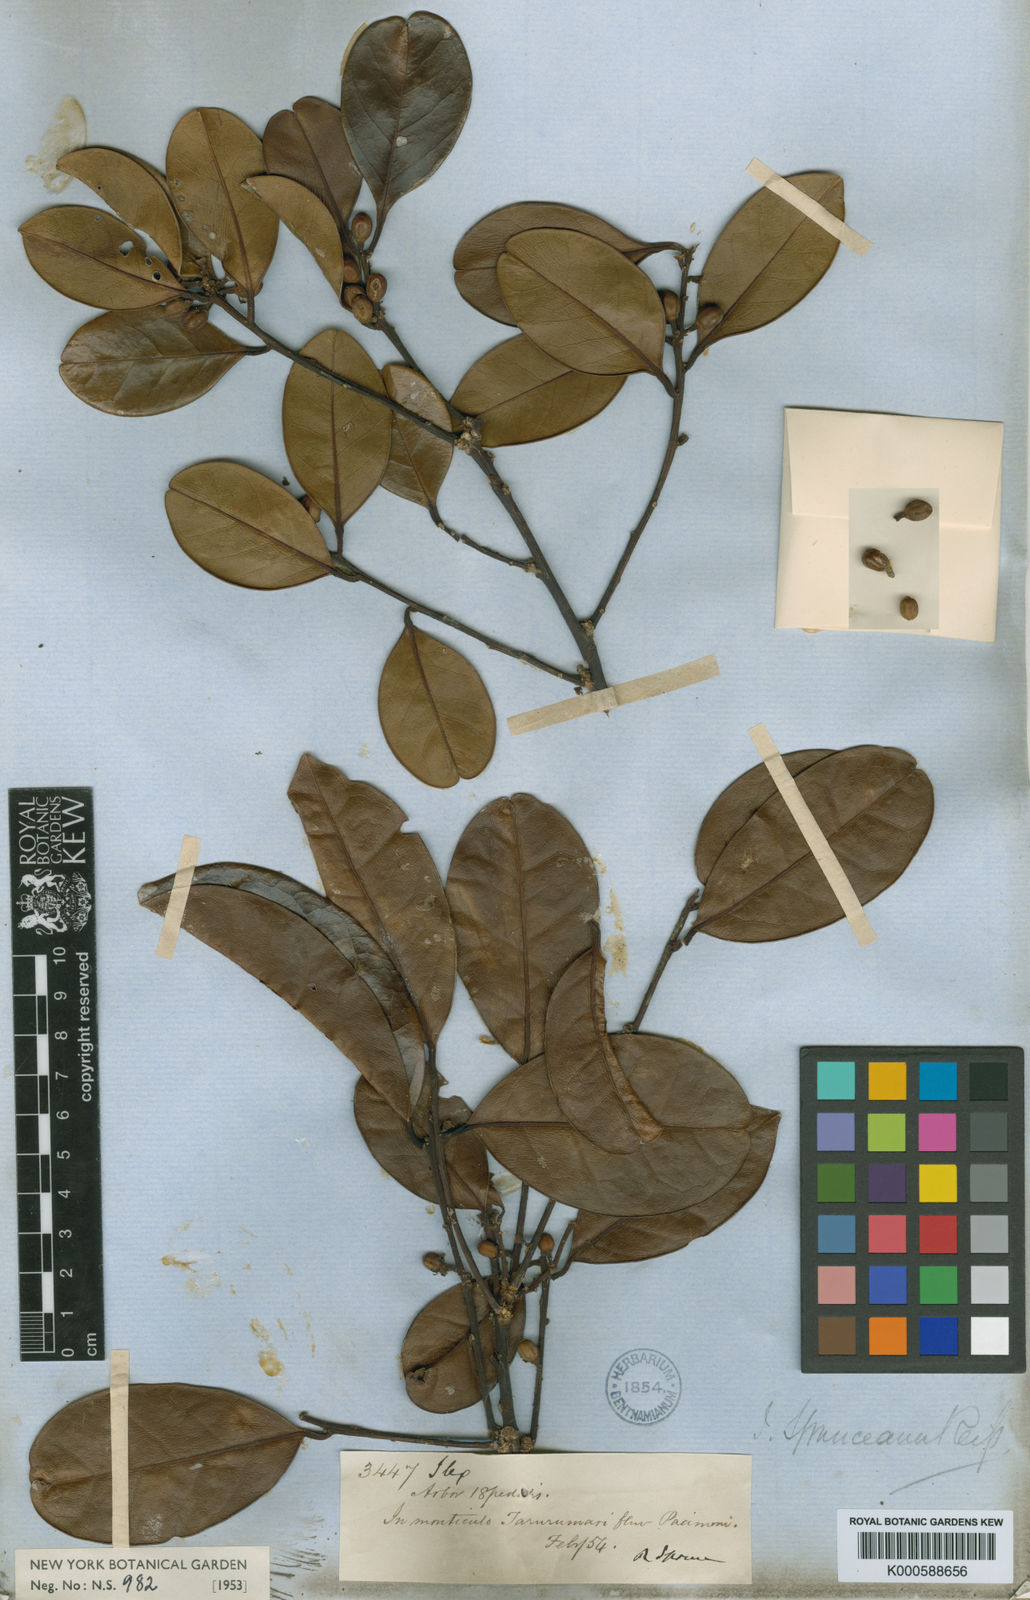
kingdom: Plantae
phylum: Tracheophyta
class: Magnoliopsida
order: Aquifoliales
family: Aquifoliaceae
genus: Ilex
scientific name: Ilex spruceana
